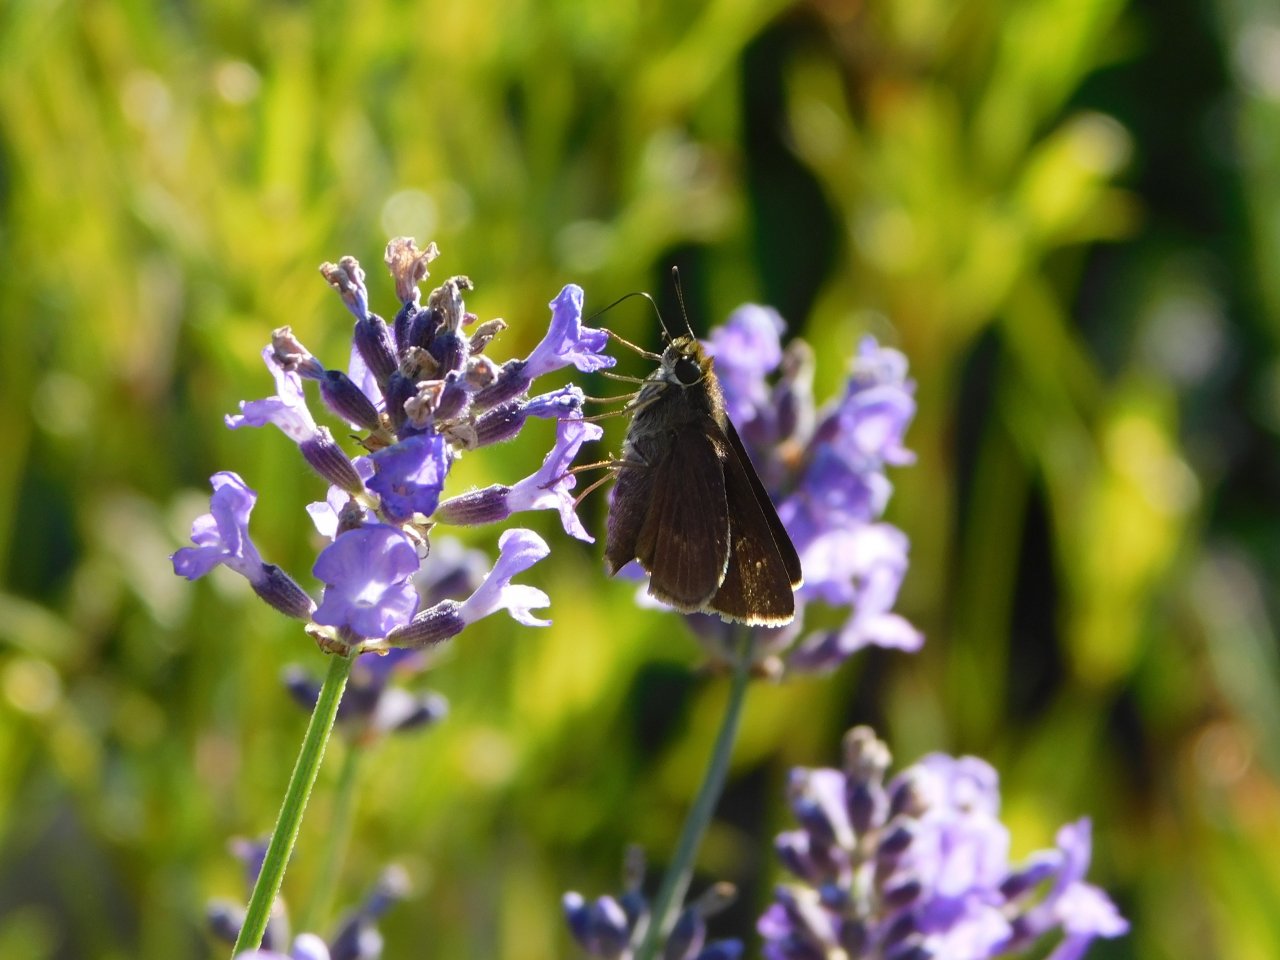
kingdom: Animalia
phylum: Arthropoda
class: Insecta
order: Lepidoptera
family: Hesperiidae
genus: Euphyes
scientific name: Euphyes vestris
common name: Dun Skipper
